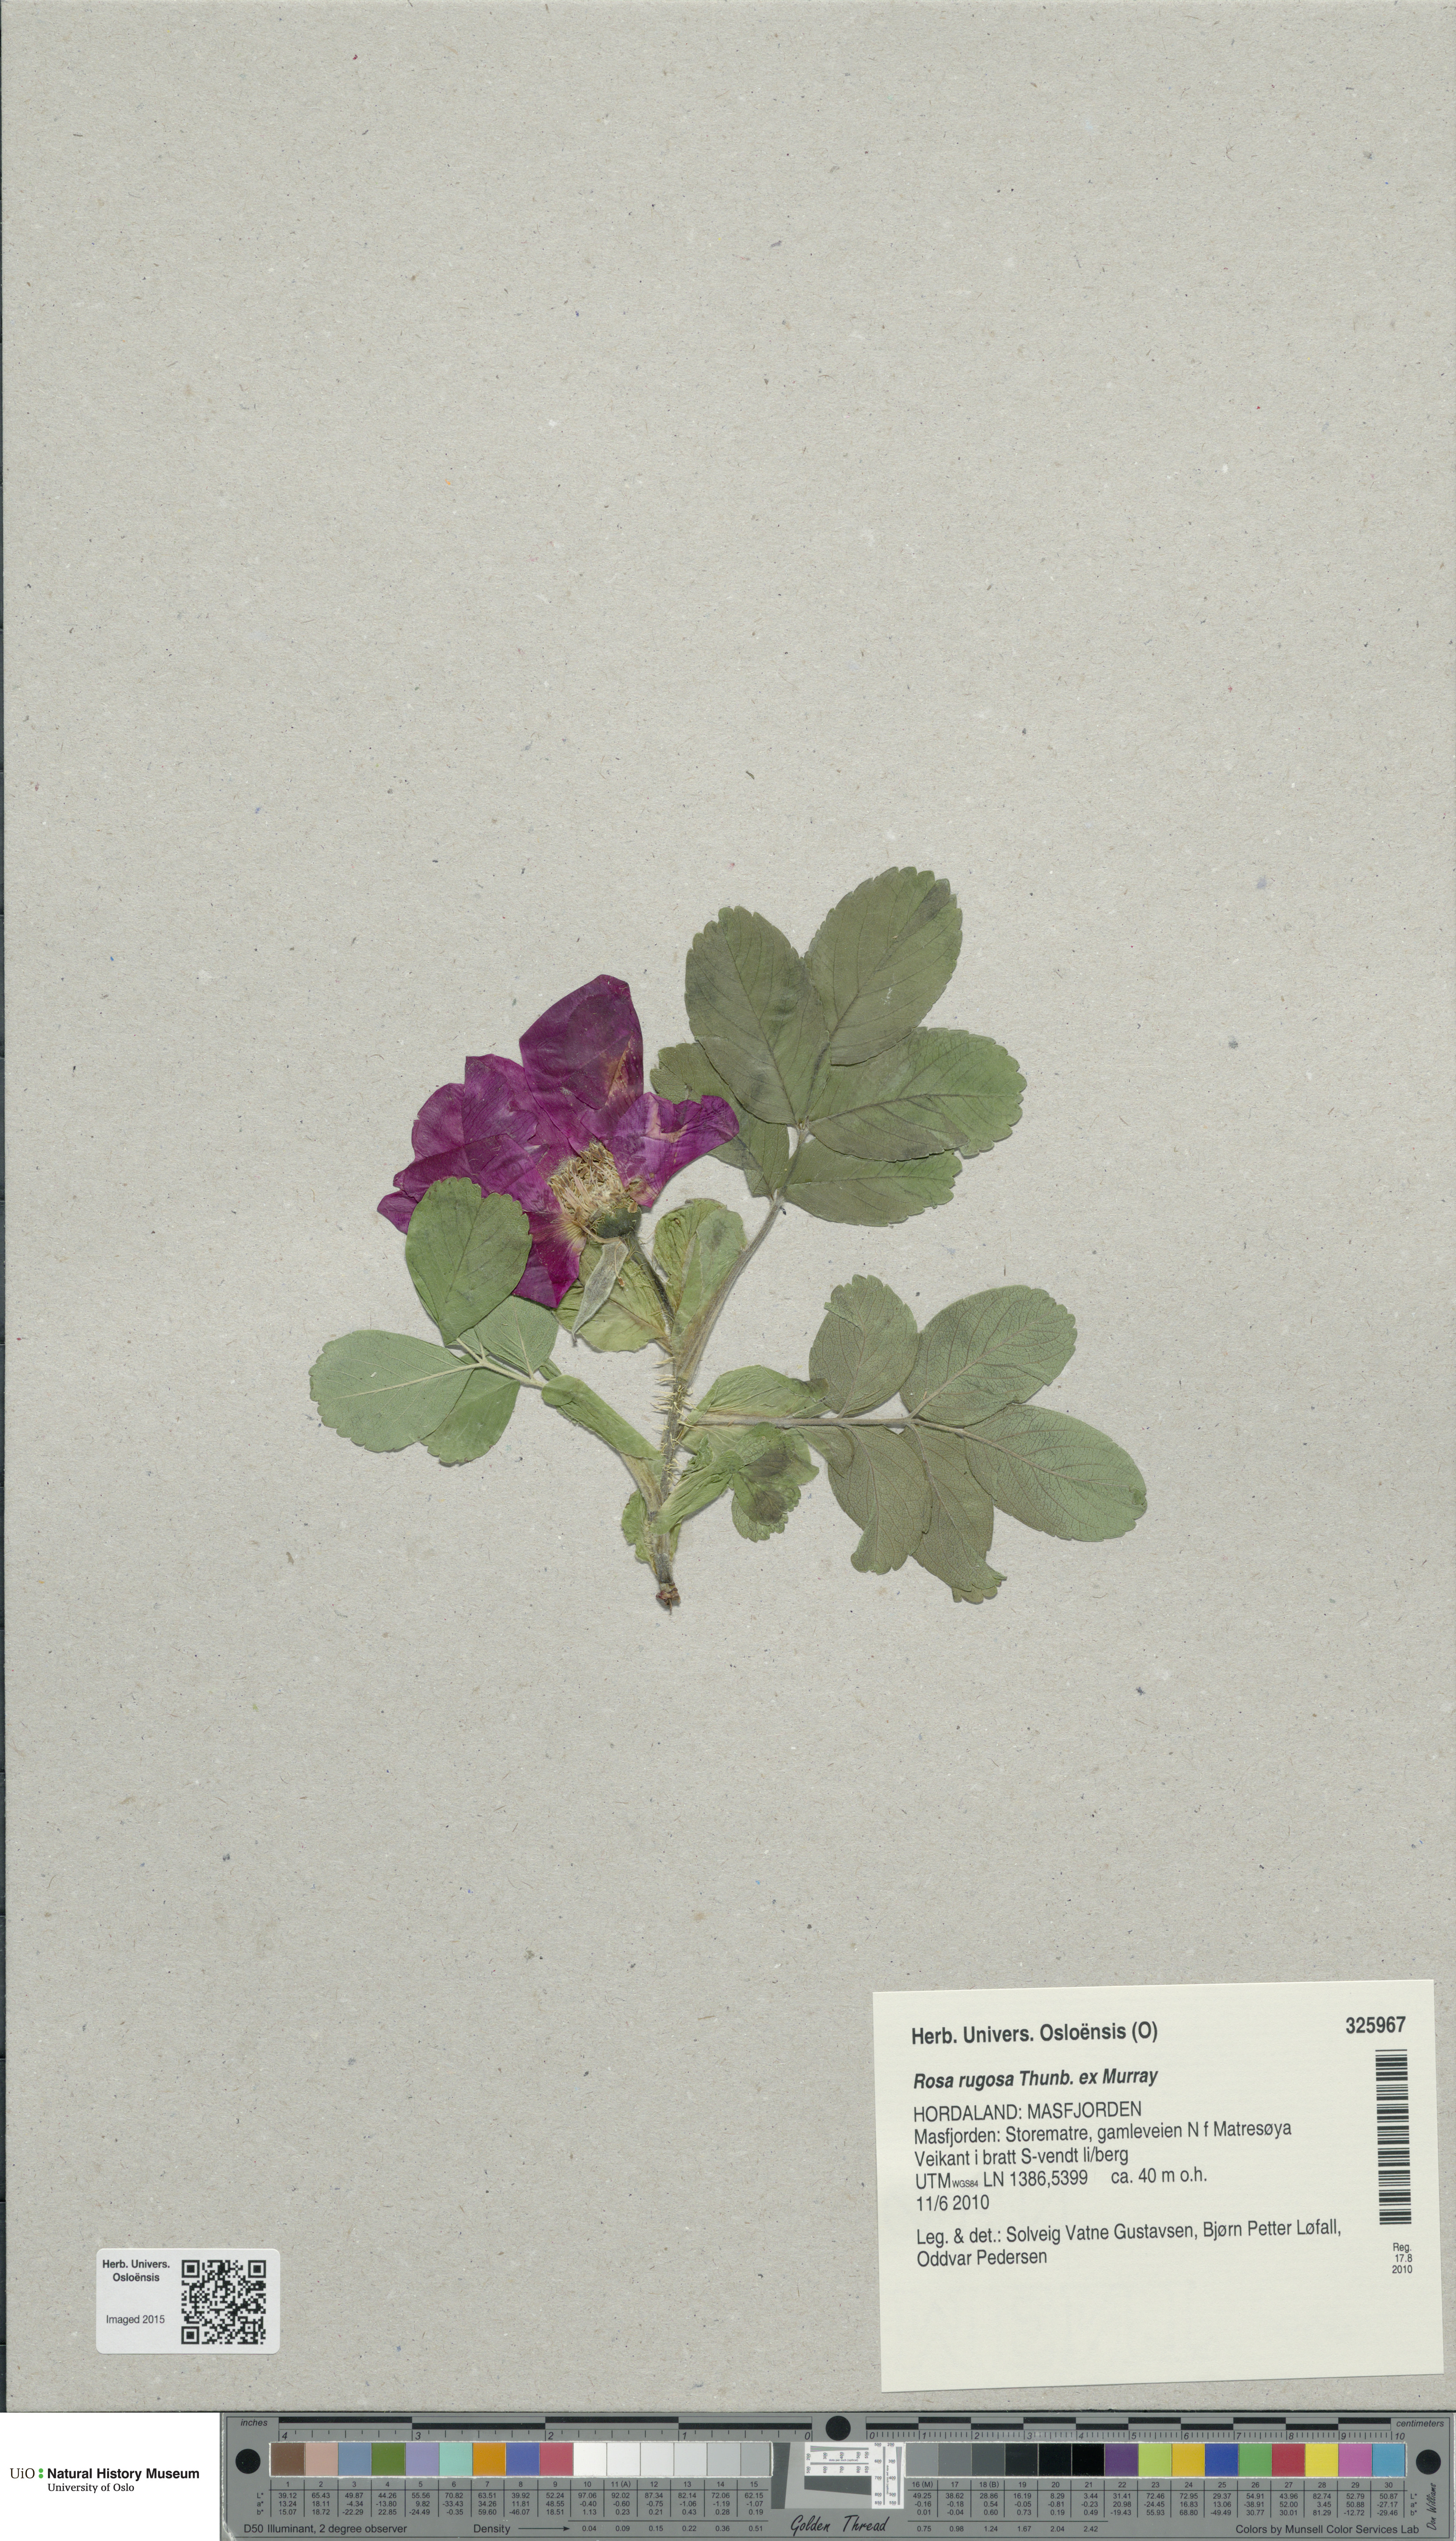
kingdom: Plantae
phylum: Tracheophyta
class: Magnoliopsida
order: Rosales
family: Rosaceae
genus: Rosa
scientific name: Rosa rugosa
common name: Japanese rose
